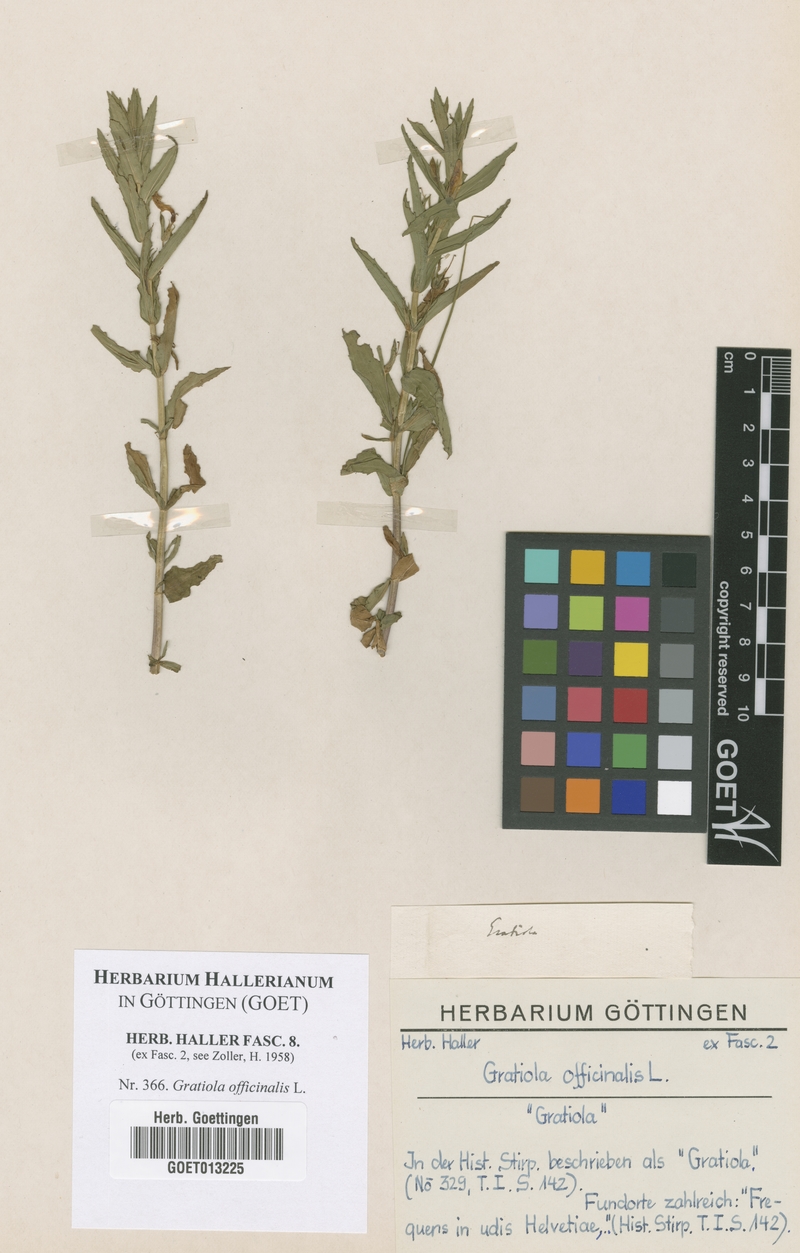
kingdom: Plantae
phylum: Tracheophyta
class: Magnoliopsida
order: Lamiales
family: Plantaginaceae
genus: Gratiola
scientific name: Gratiola officinalis
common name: Gratiola
